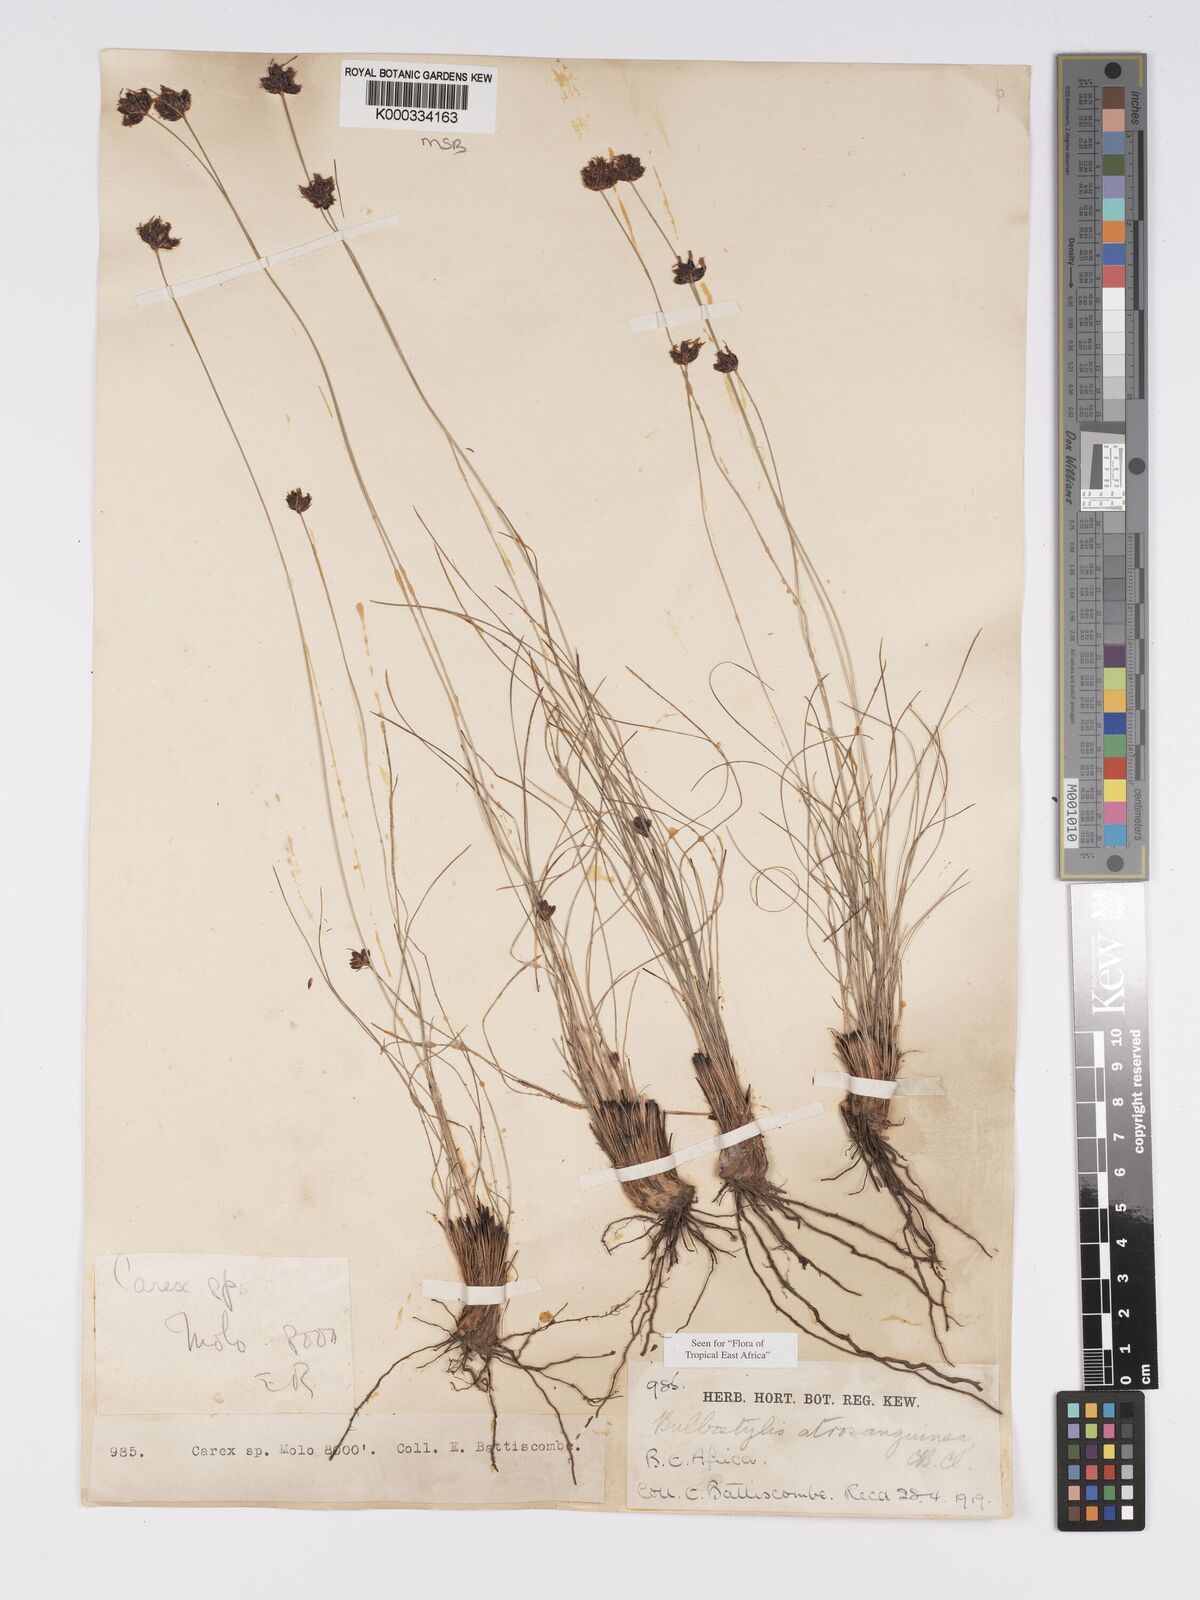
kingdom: Plantae
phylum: Tracheophyta
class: Liliopsida
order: Poales
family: Cyperaceae
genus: Bulbostylis
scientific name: Bulbostylis atrosanguinea
